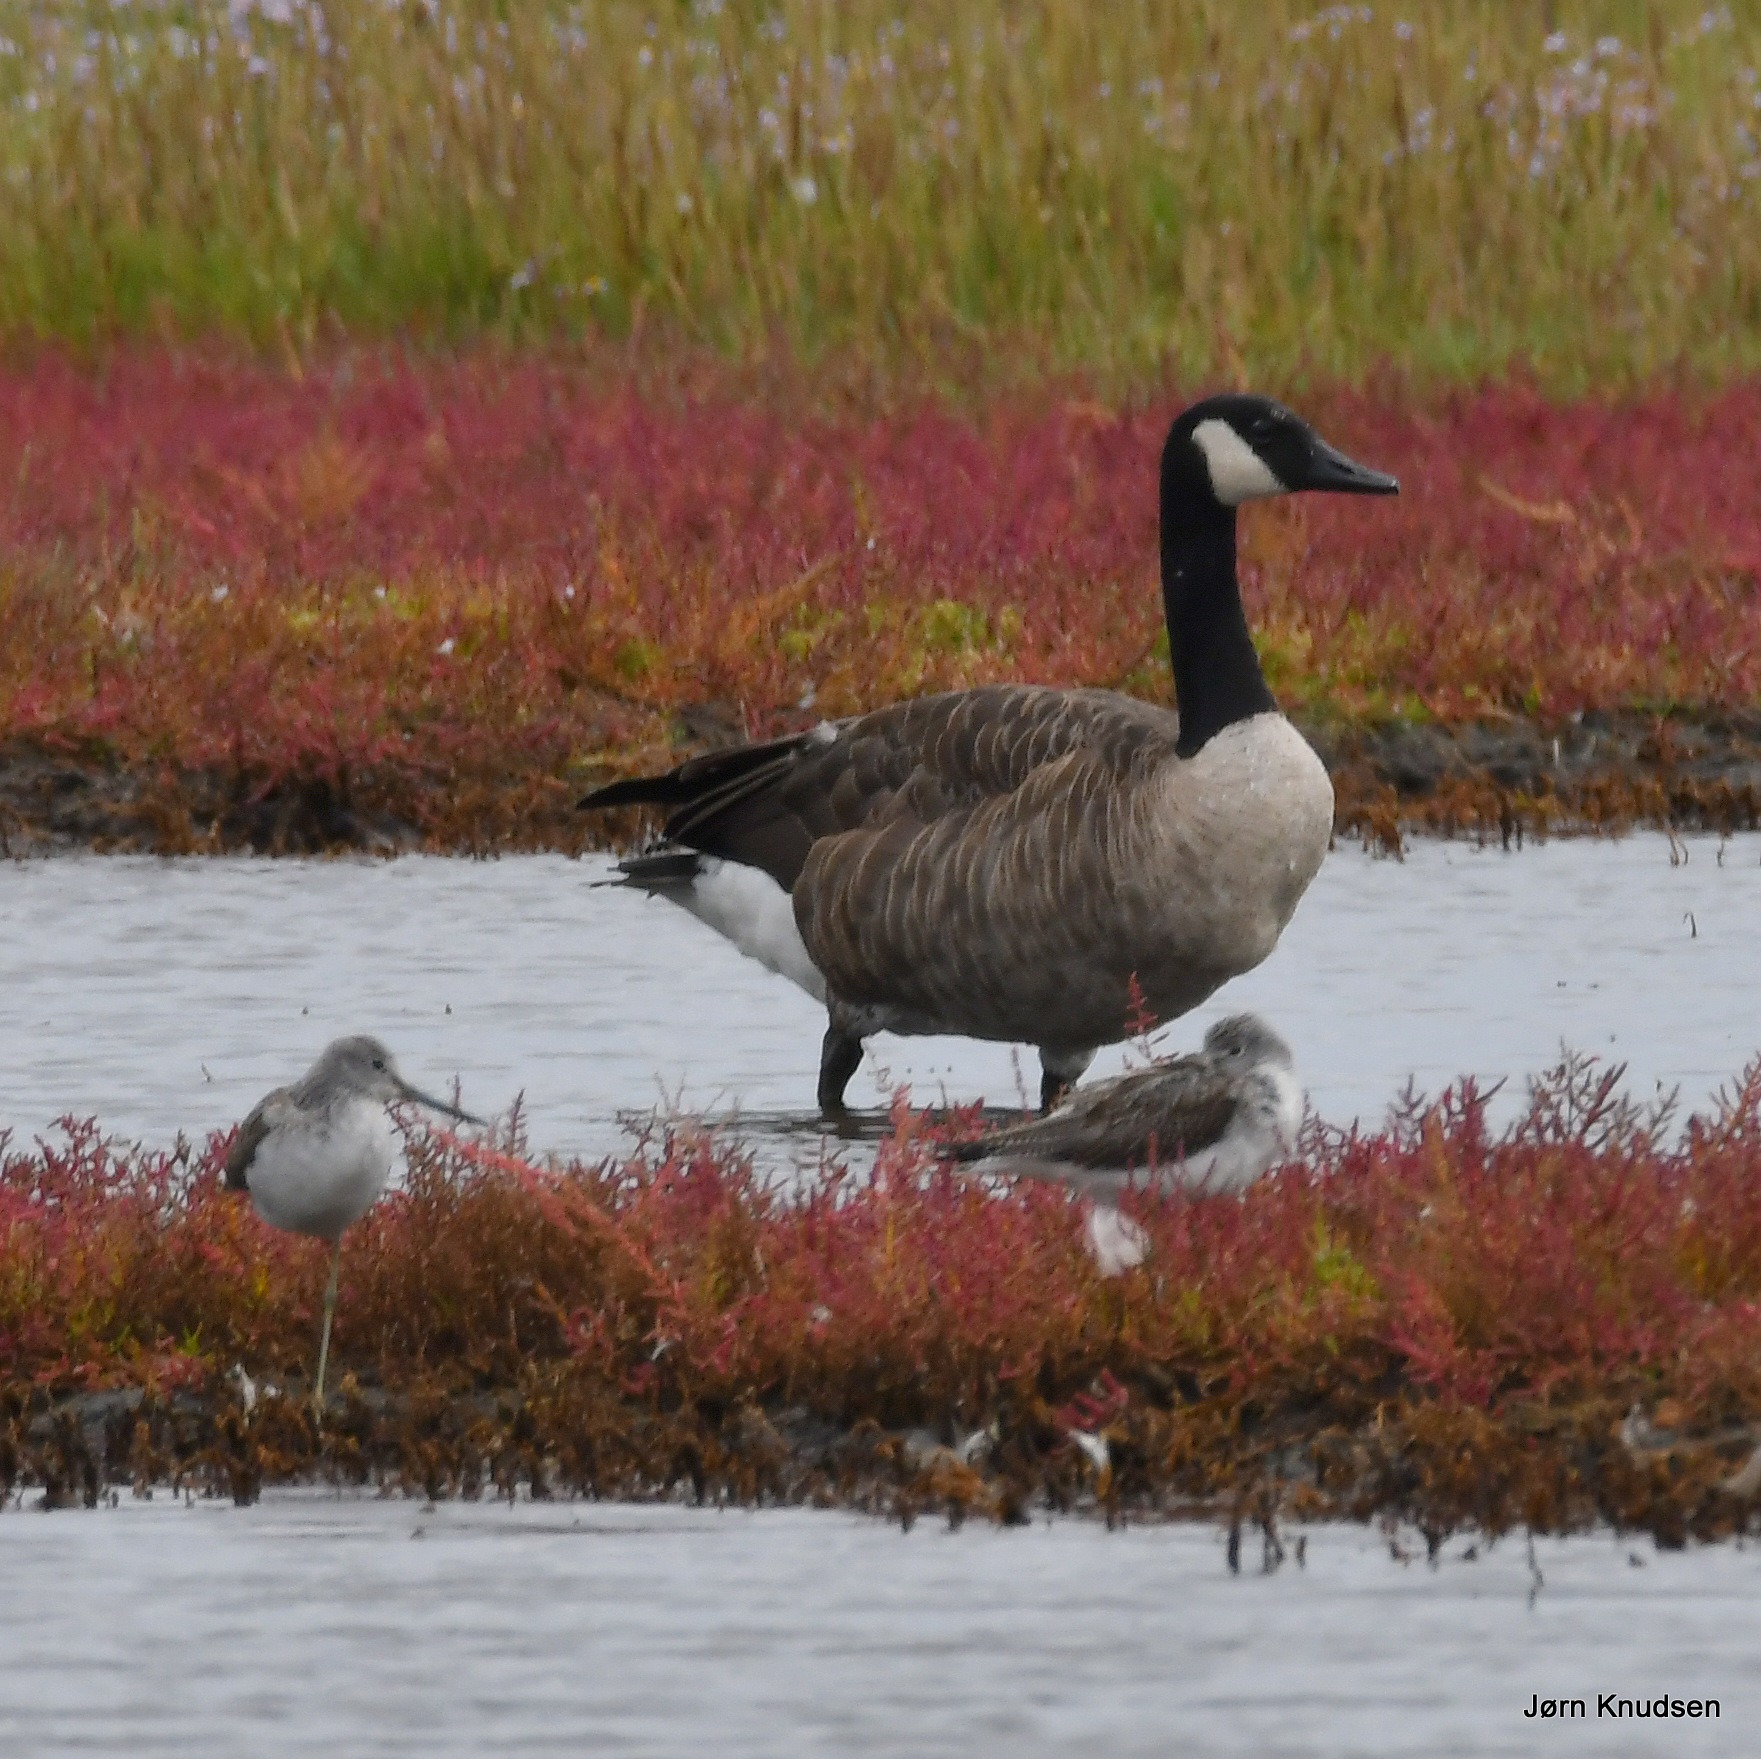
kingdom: Animalia
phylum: Chordata
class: Aves
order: Anseriformes
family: Anatidae
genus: Branta
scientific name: Branta canadensis
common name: Canadagås
